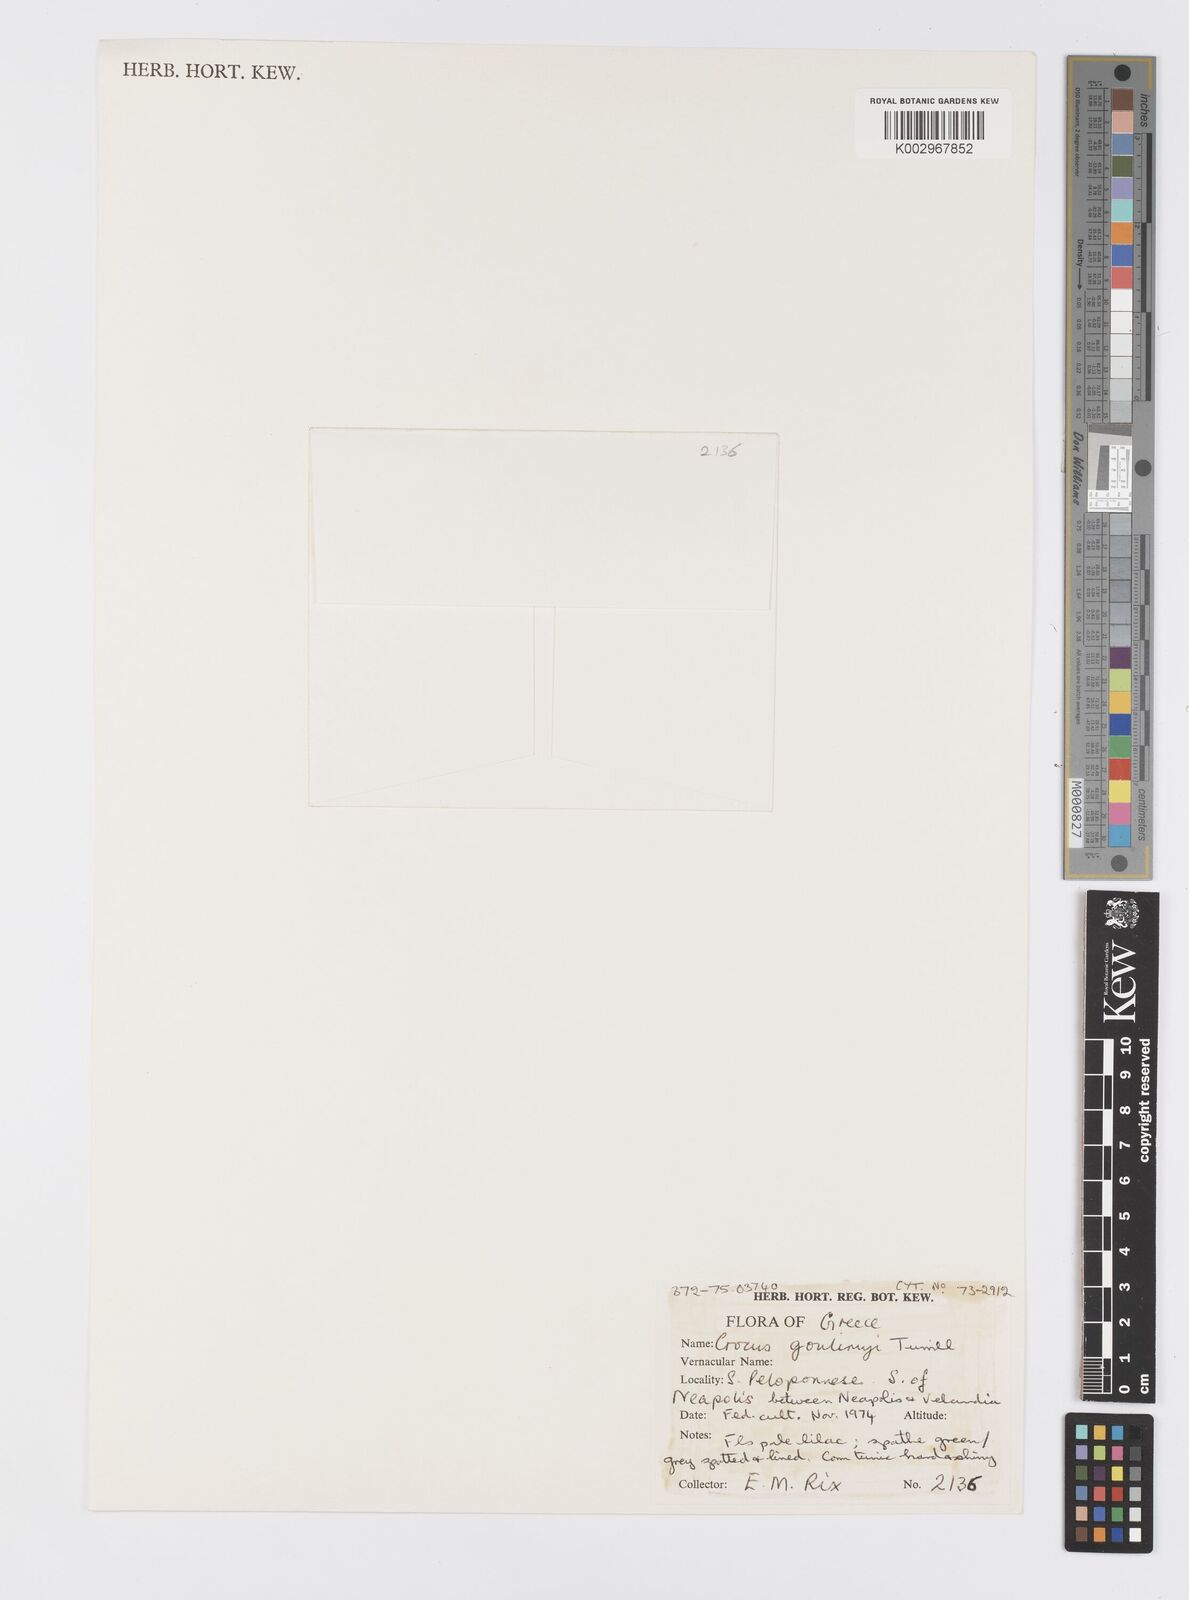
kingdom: Plantae
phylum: Tracheophyta
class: Liliopsida
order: Asparagales
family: Iridaceae
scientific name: Iridaceae
